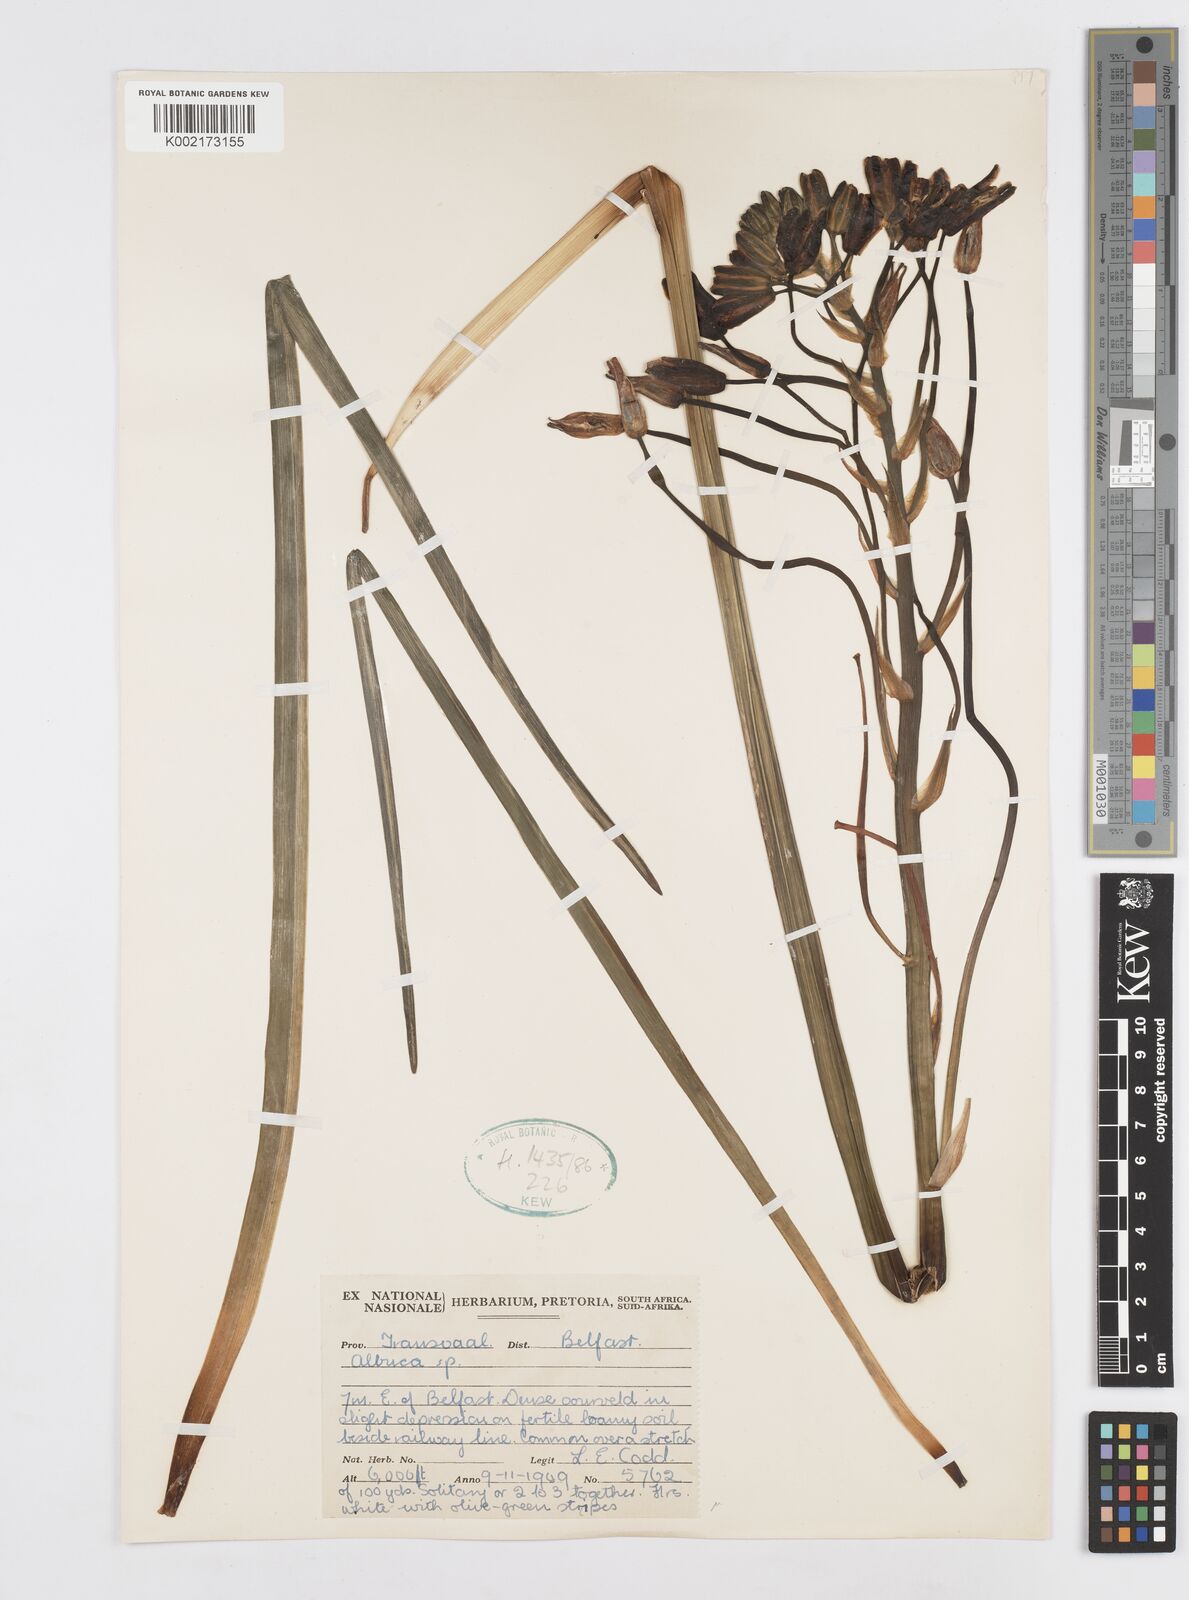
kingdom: Plantae
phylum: Tracheophyta
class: Liliopsida
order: Asparagales
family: Asparagaceae
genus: Albuca
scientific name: Albuca
